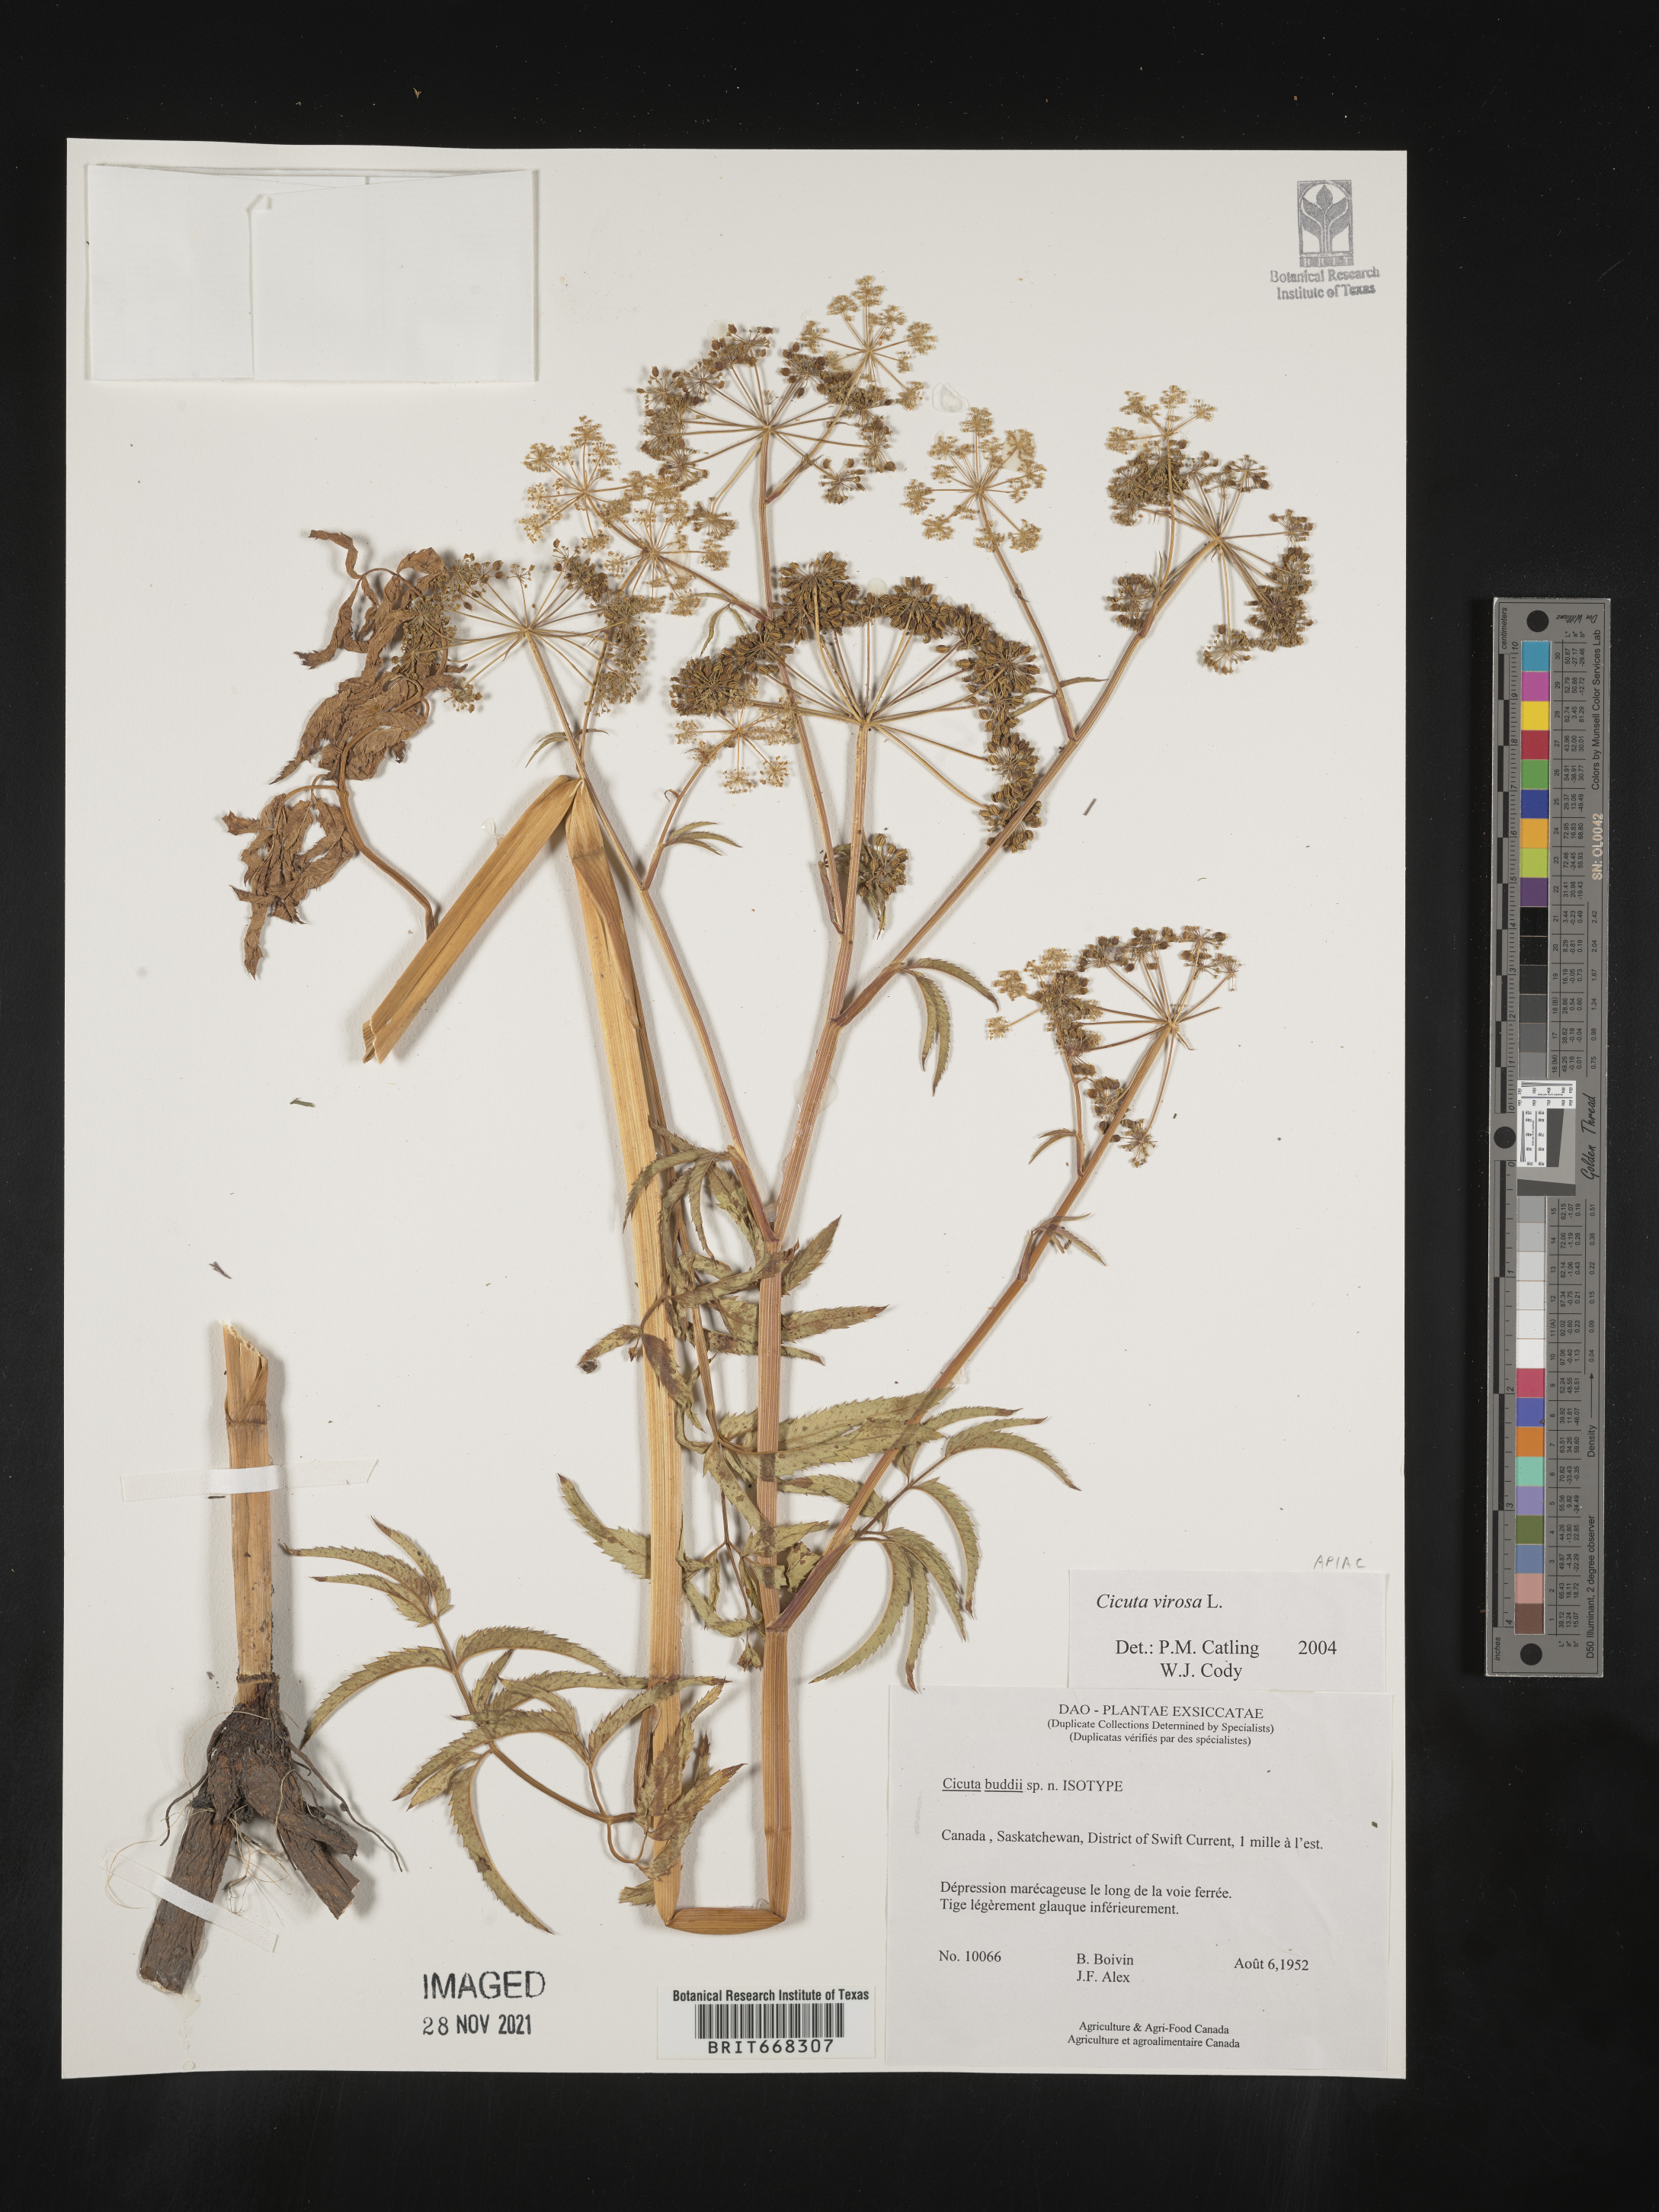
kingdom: Plantae
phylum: Tracheophyta
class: Magnoliopsida
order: Apiales
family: Apiaceae
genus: Cicuta
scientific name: Cicuta
